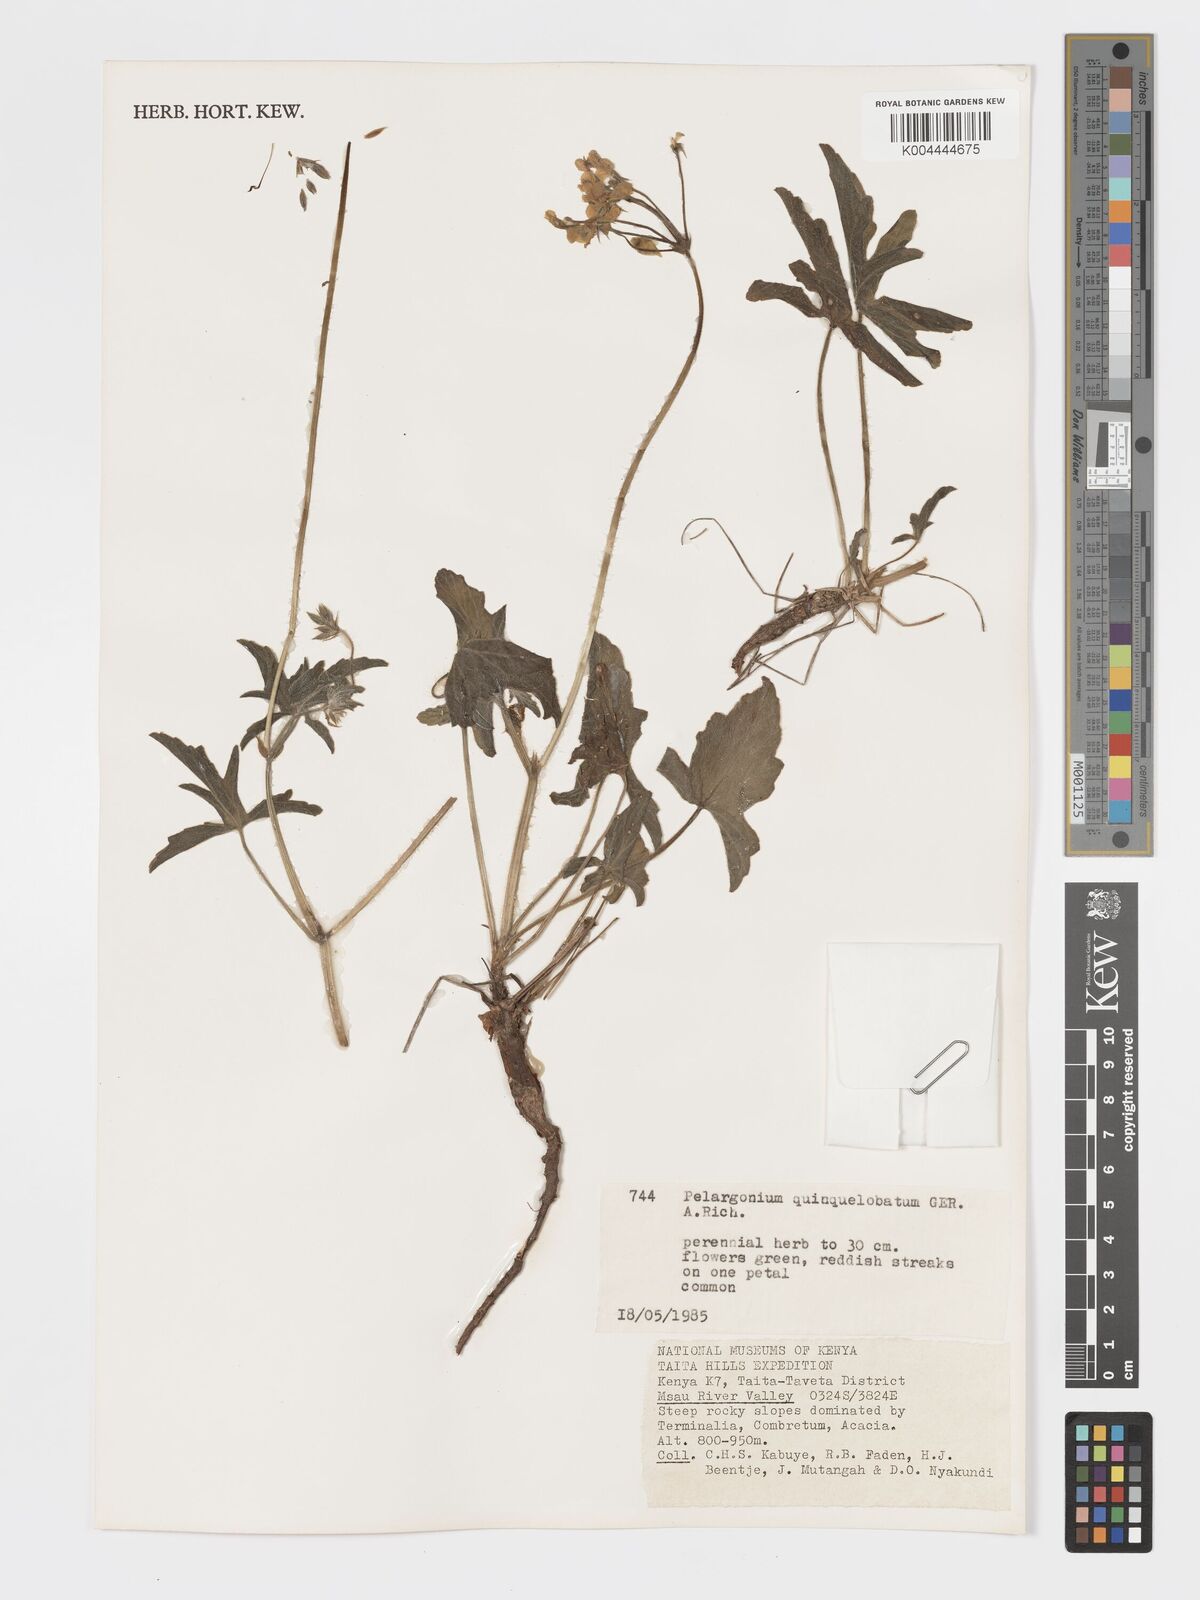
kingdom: Plantae
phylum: Tracheophyta
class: Magnoliopsida
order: Geraniales
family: Geraniaceae
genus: Pelargonium
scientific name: Pelargonium quinquelobatum
